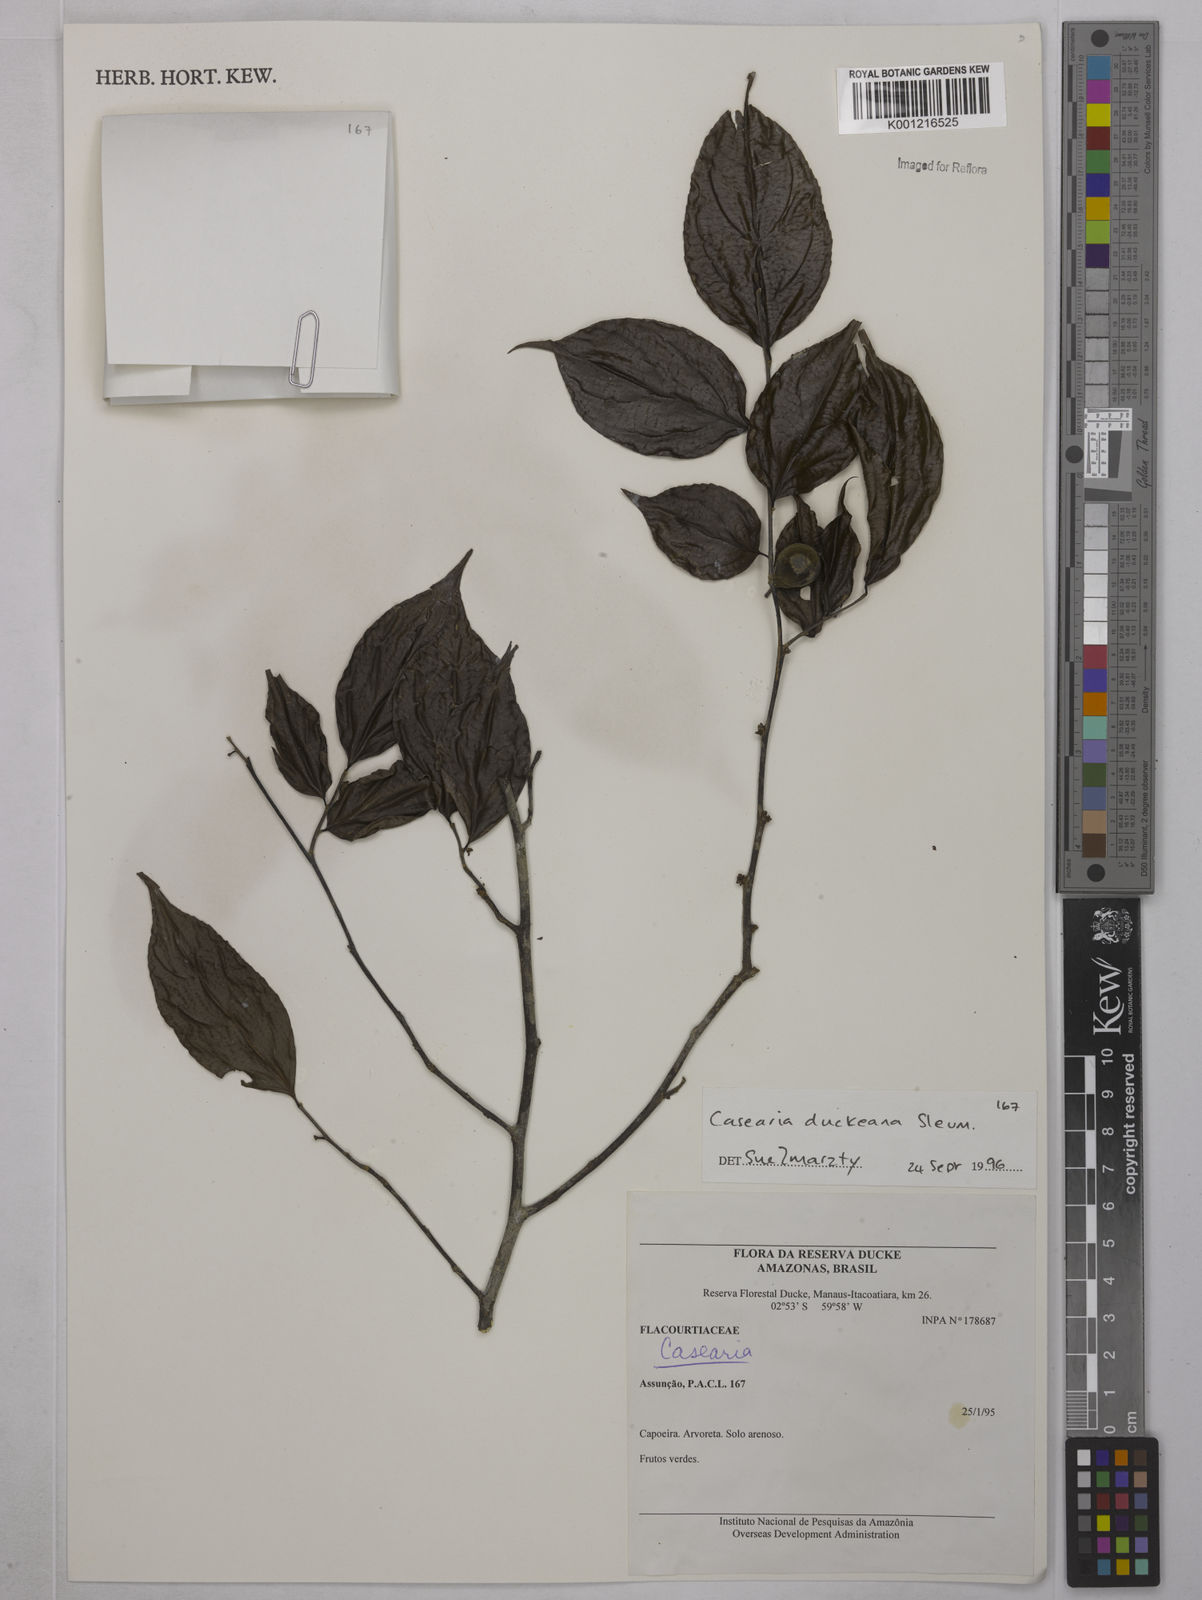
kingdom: Plantae
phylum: Tracheophyta
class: Magnoliopsida
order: Malpighiales
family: Salicaceae
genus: Casearia
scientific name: Casearia duckeana
